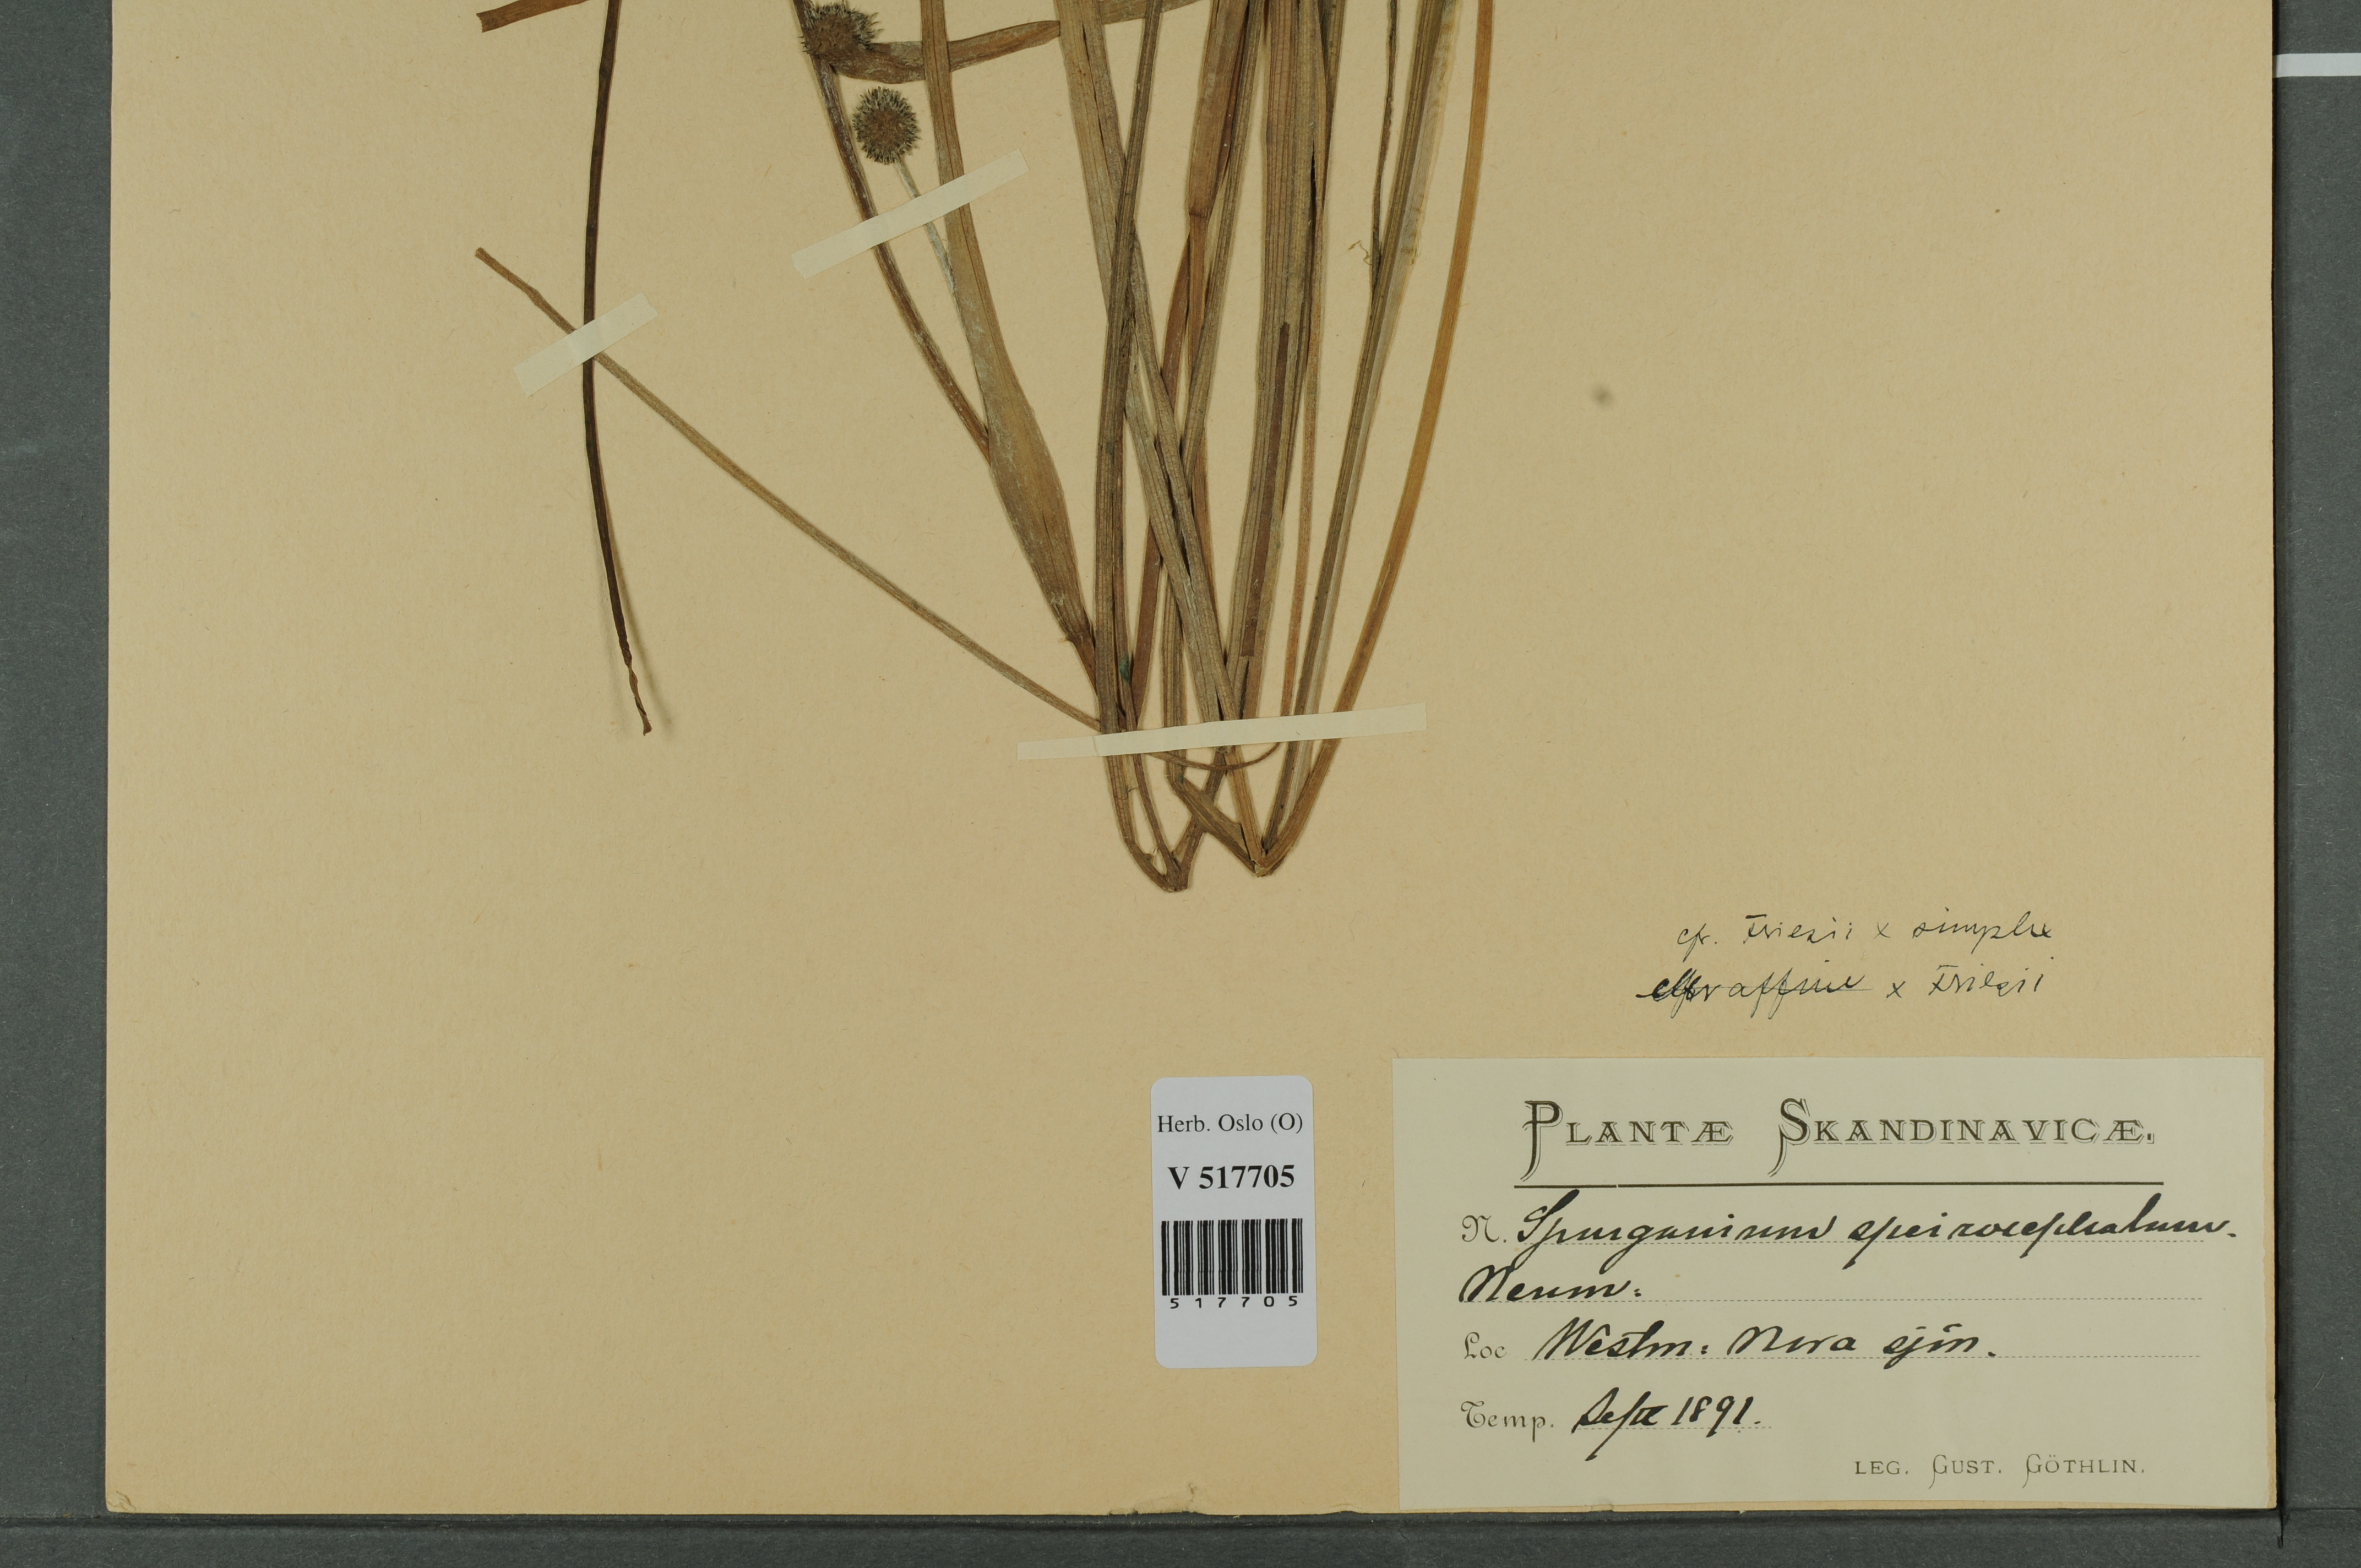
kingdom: Plantae
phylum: Tracheophyta
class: Liliopsida
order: Poales
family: Typhaceae
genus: Sparganium
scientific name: Sparganium
